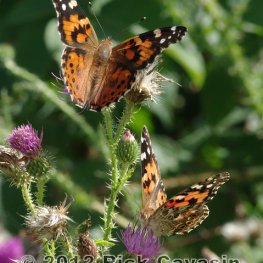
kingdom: Animalia
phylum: Arthropoda
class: Insecta
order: Lepidoptera
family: Nymphalidae
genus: Vanessa
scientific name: Vanessa cardui
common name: Painted Lady
